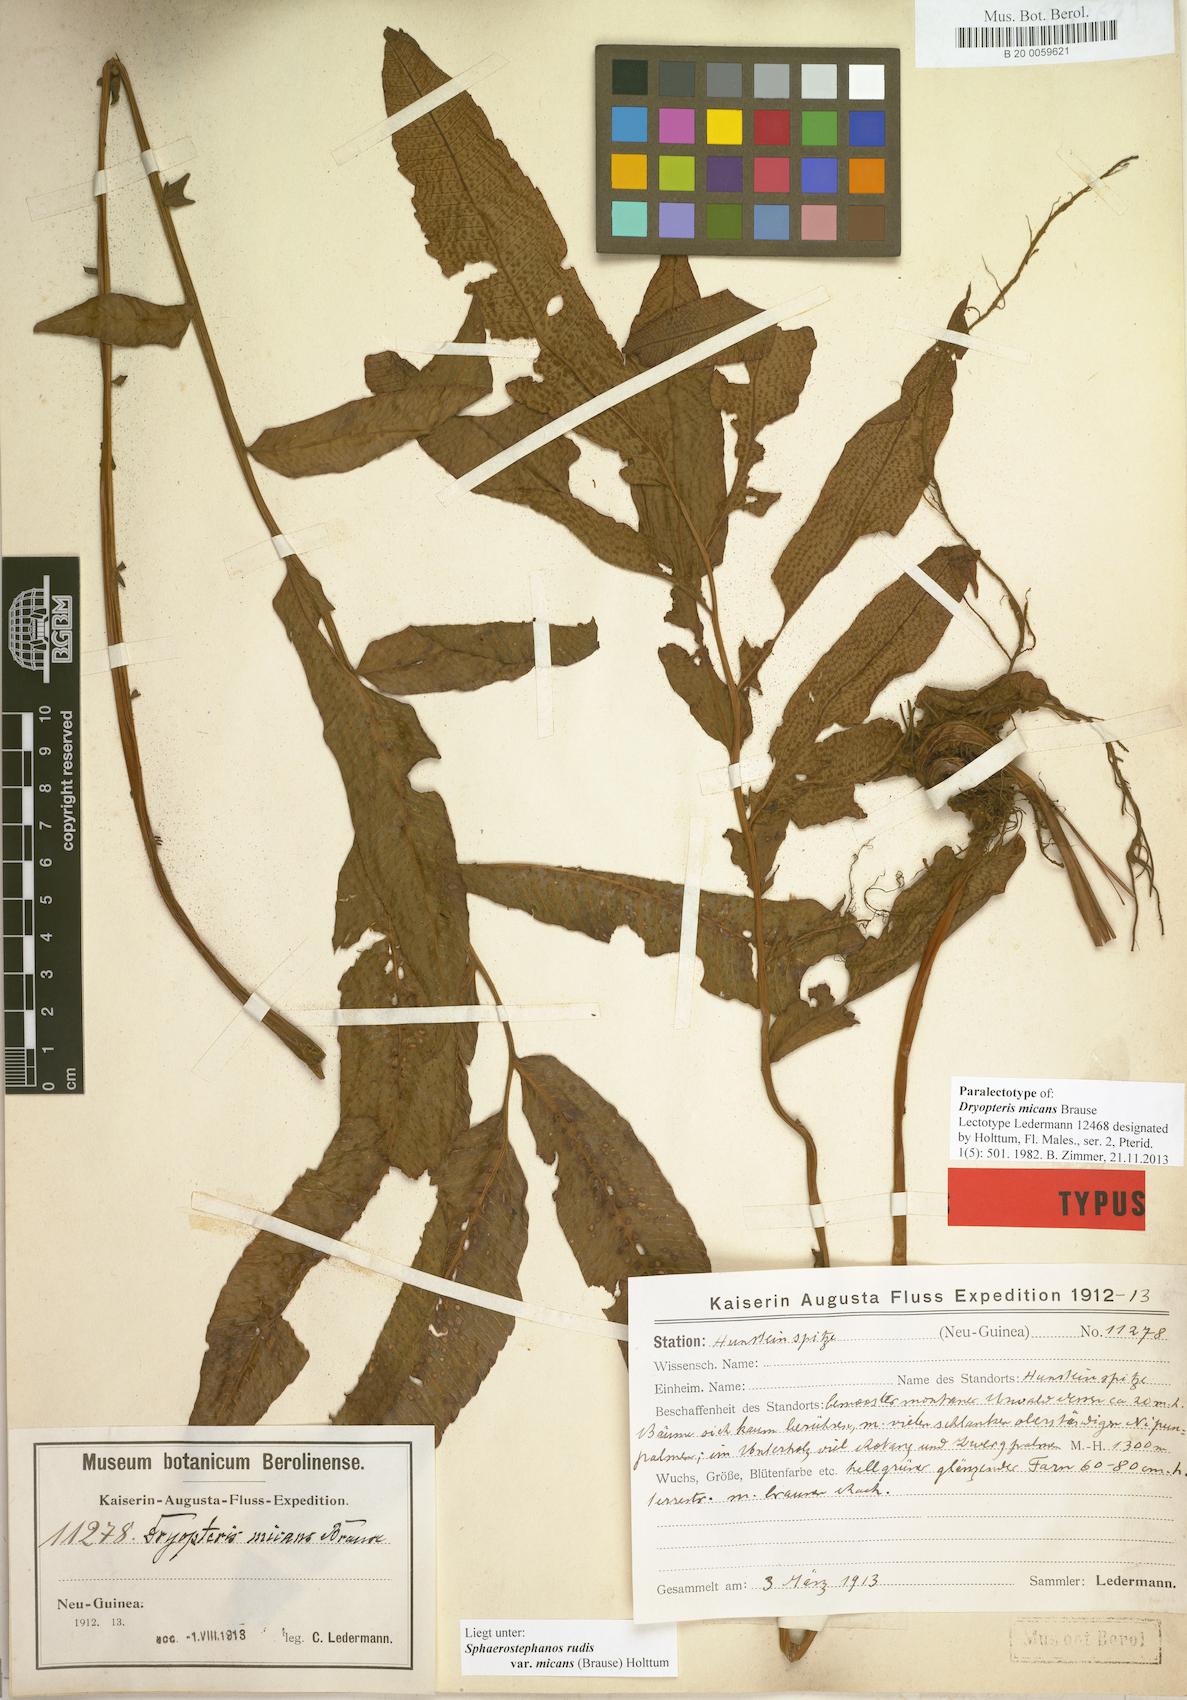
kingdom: Plantae
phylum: Tracheophyta
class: Polypodiopsida
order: Polypodiales
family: Thelypteridaceae
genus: Sphaerostephanos
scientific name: Sphaerostephanos rudis
